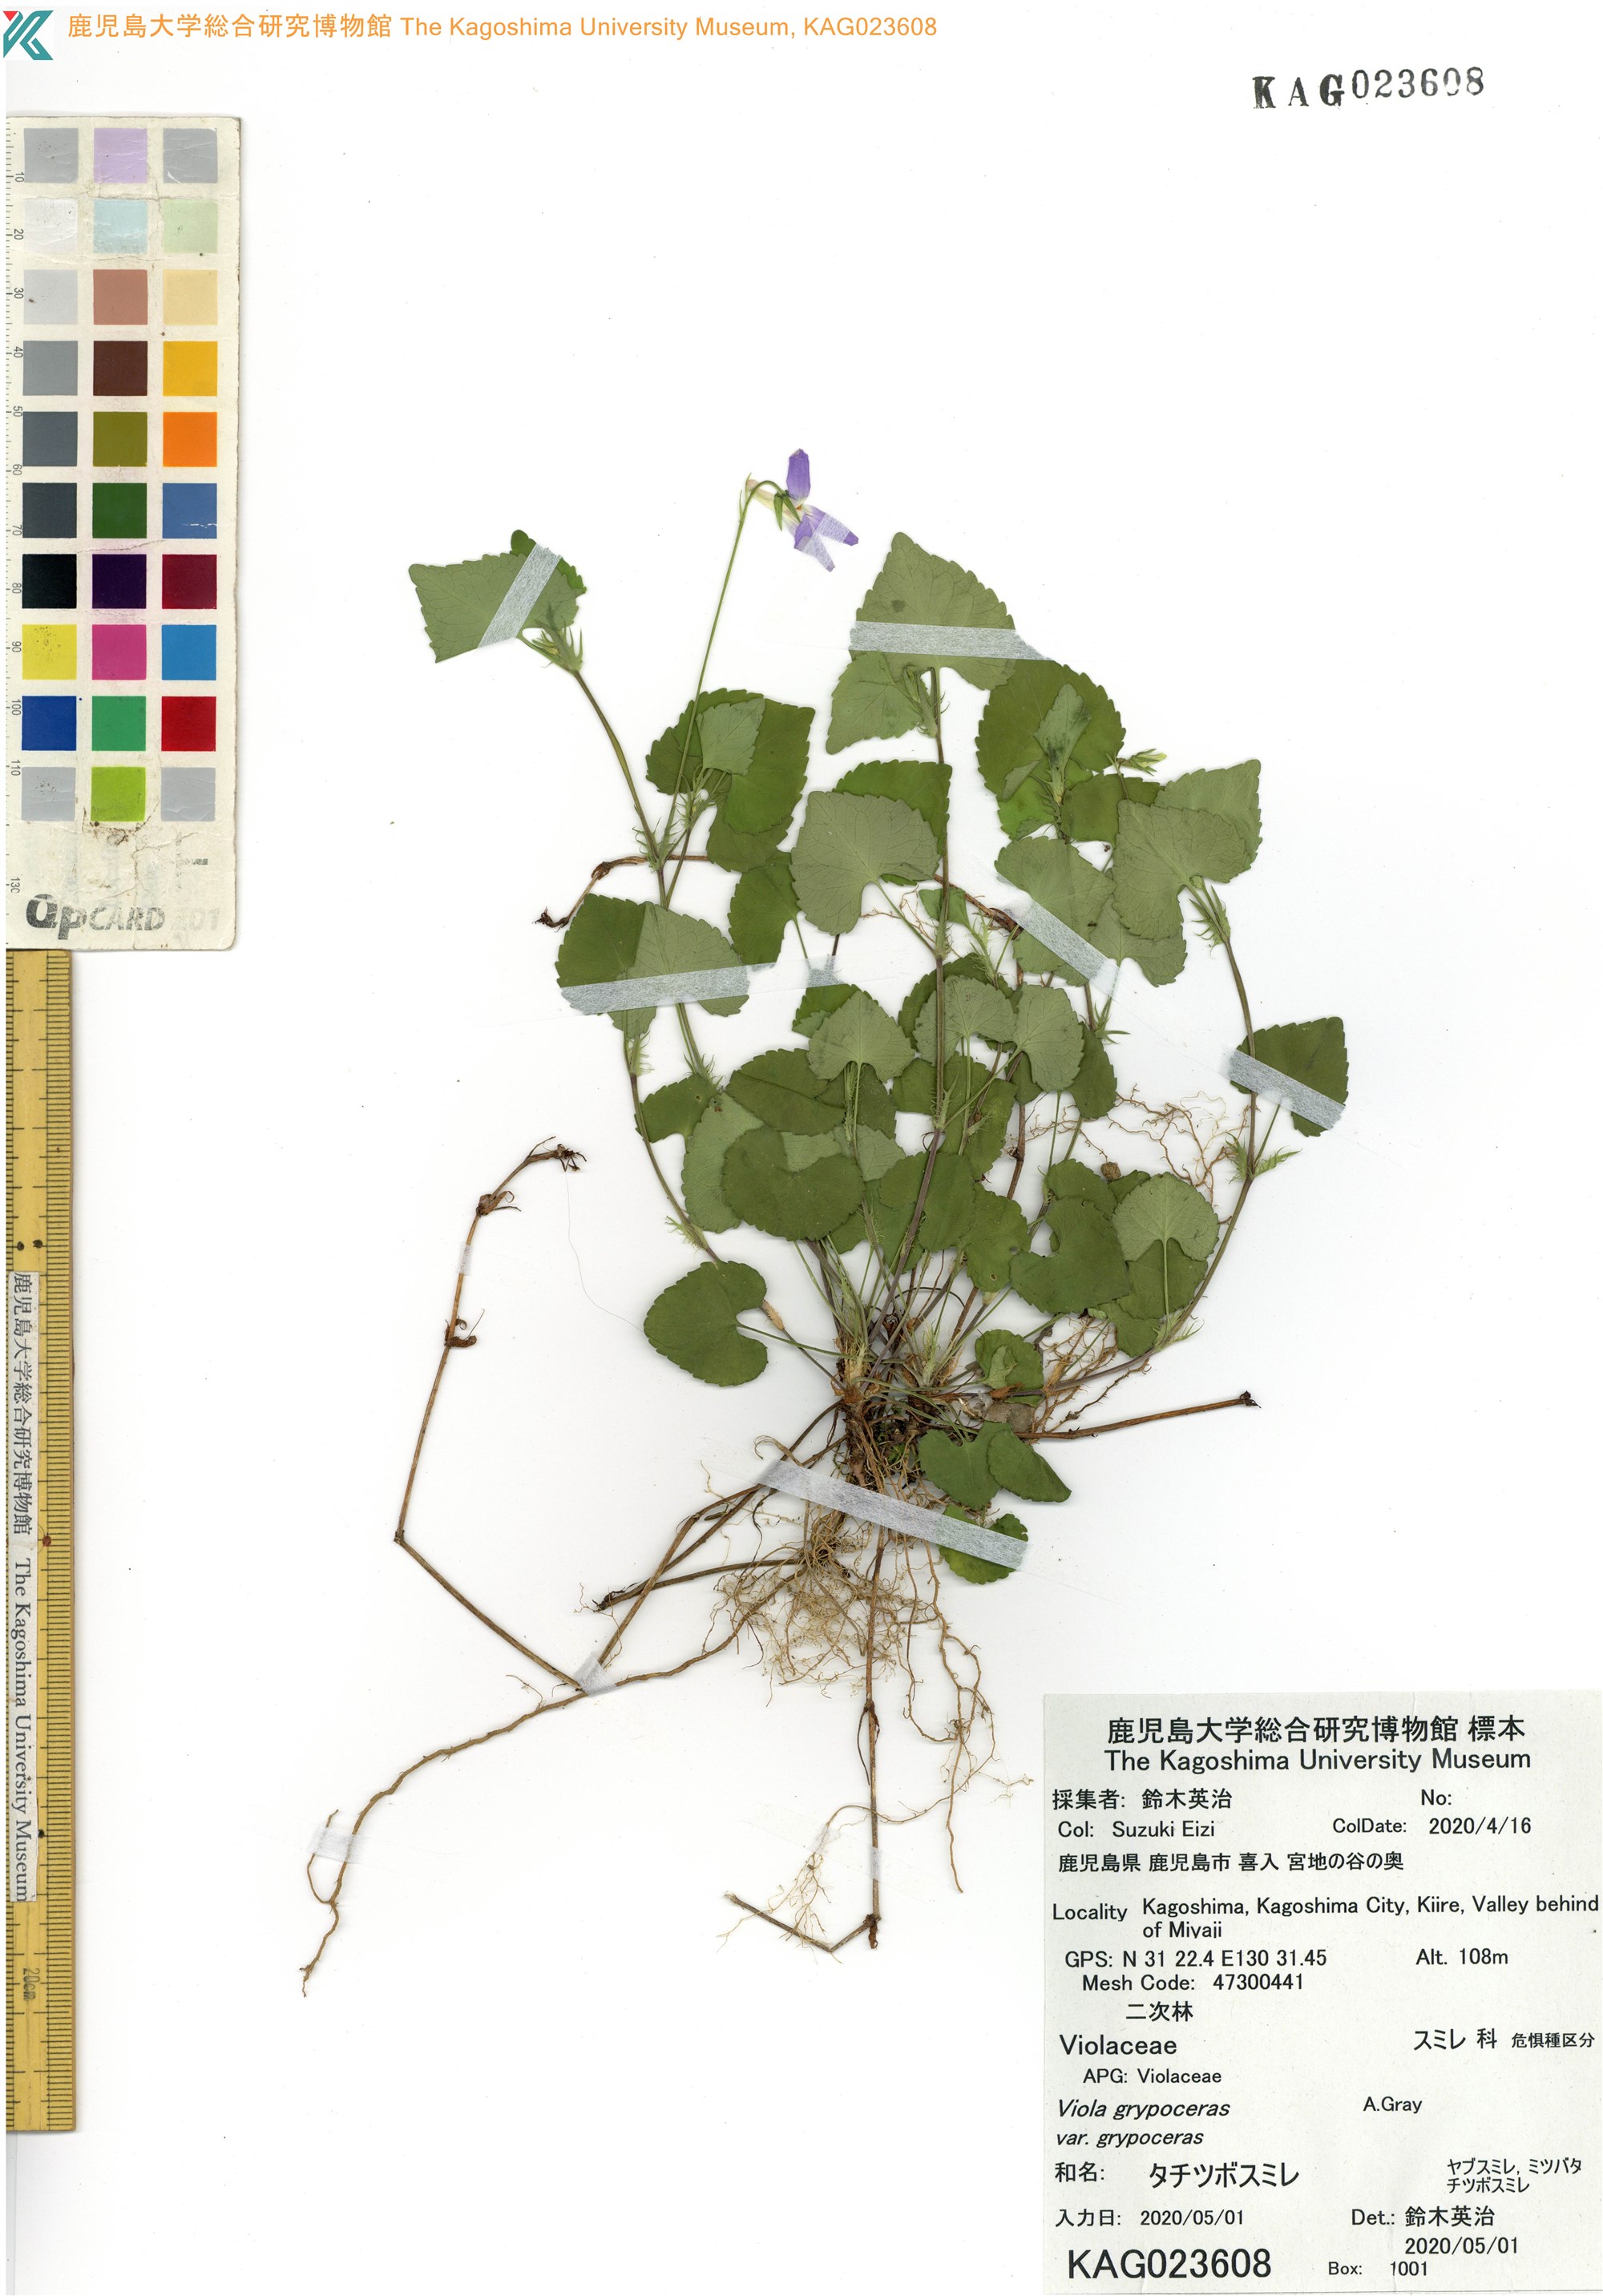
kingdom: Plantae
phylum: Tracheophyta
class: Magnoliopsida
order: Malpighiales
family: Violaceae
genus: Viola
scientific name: Viola grypoceras
